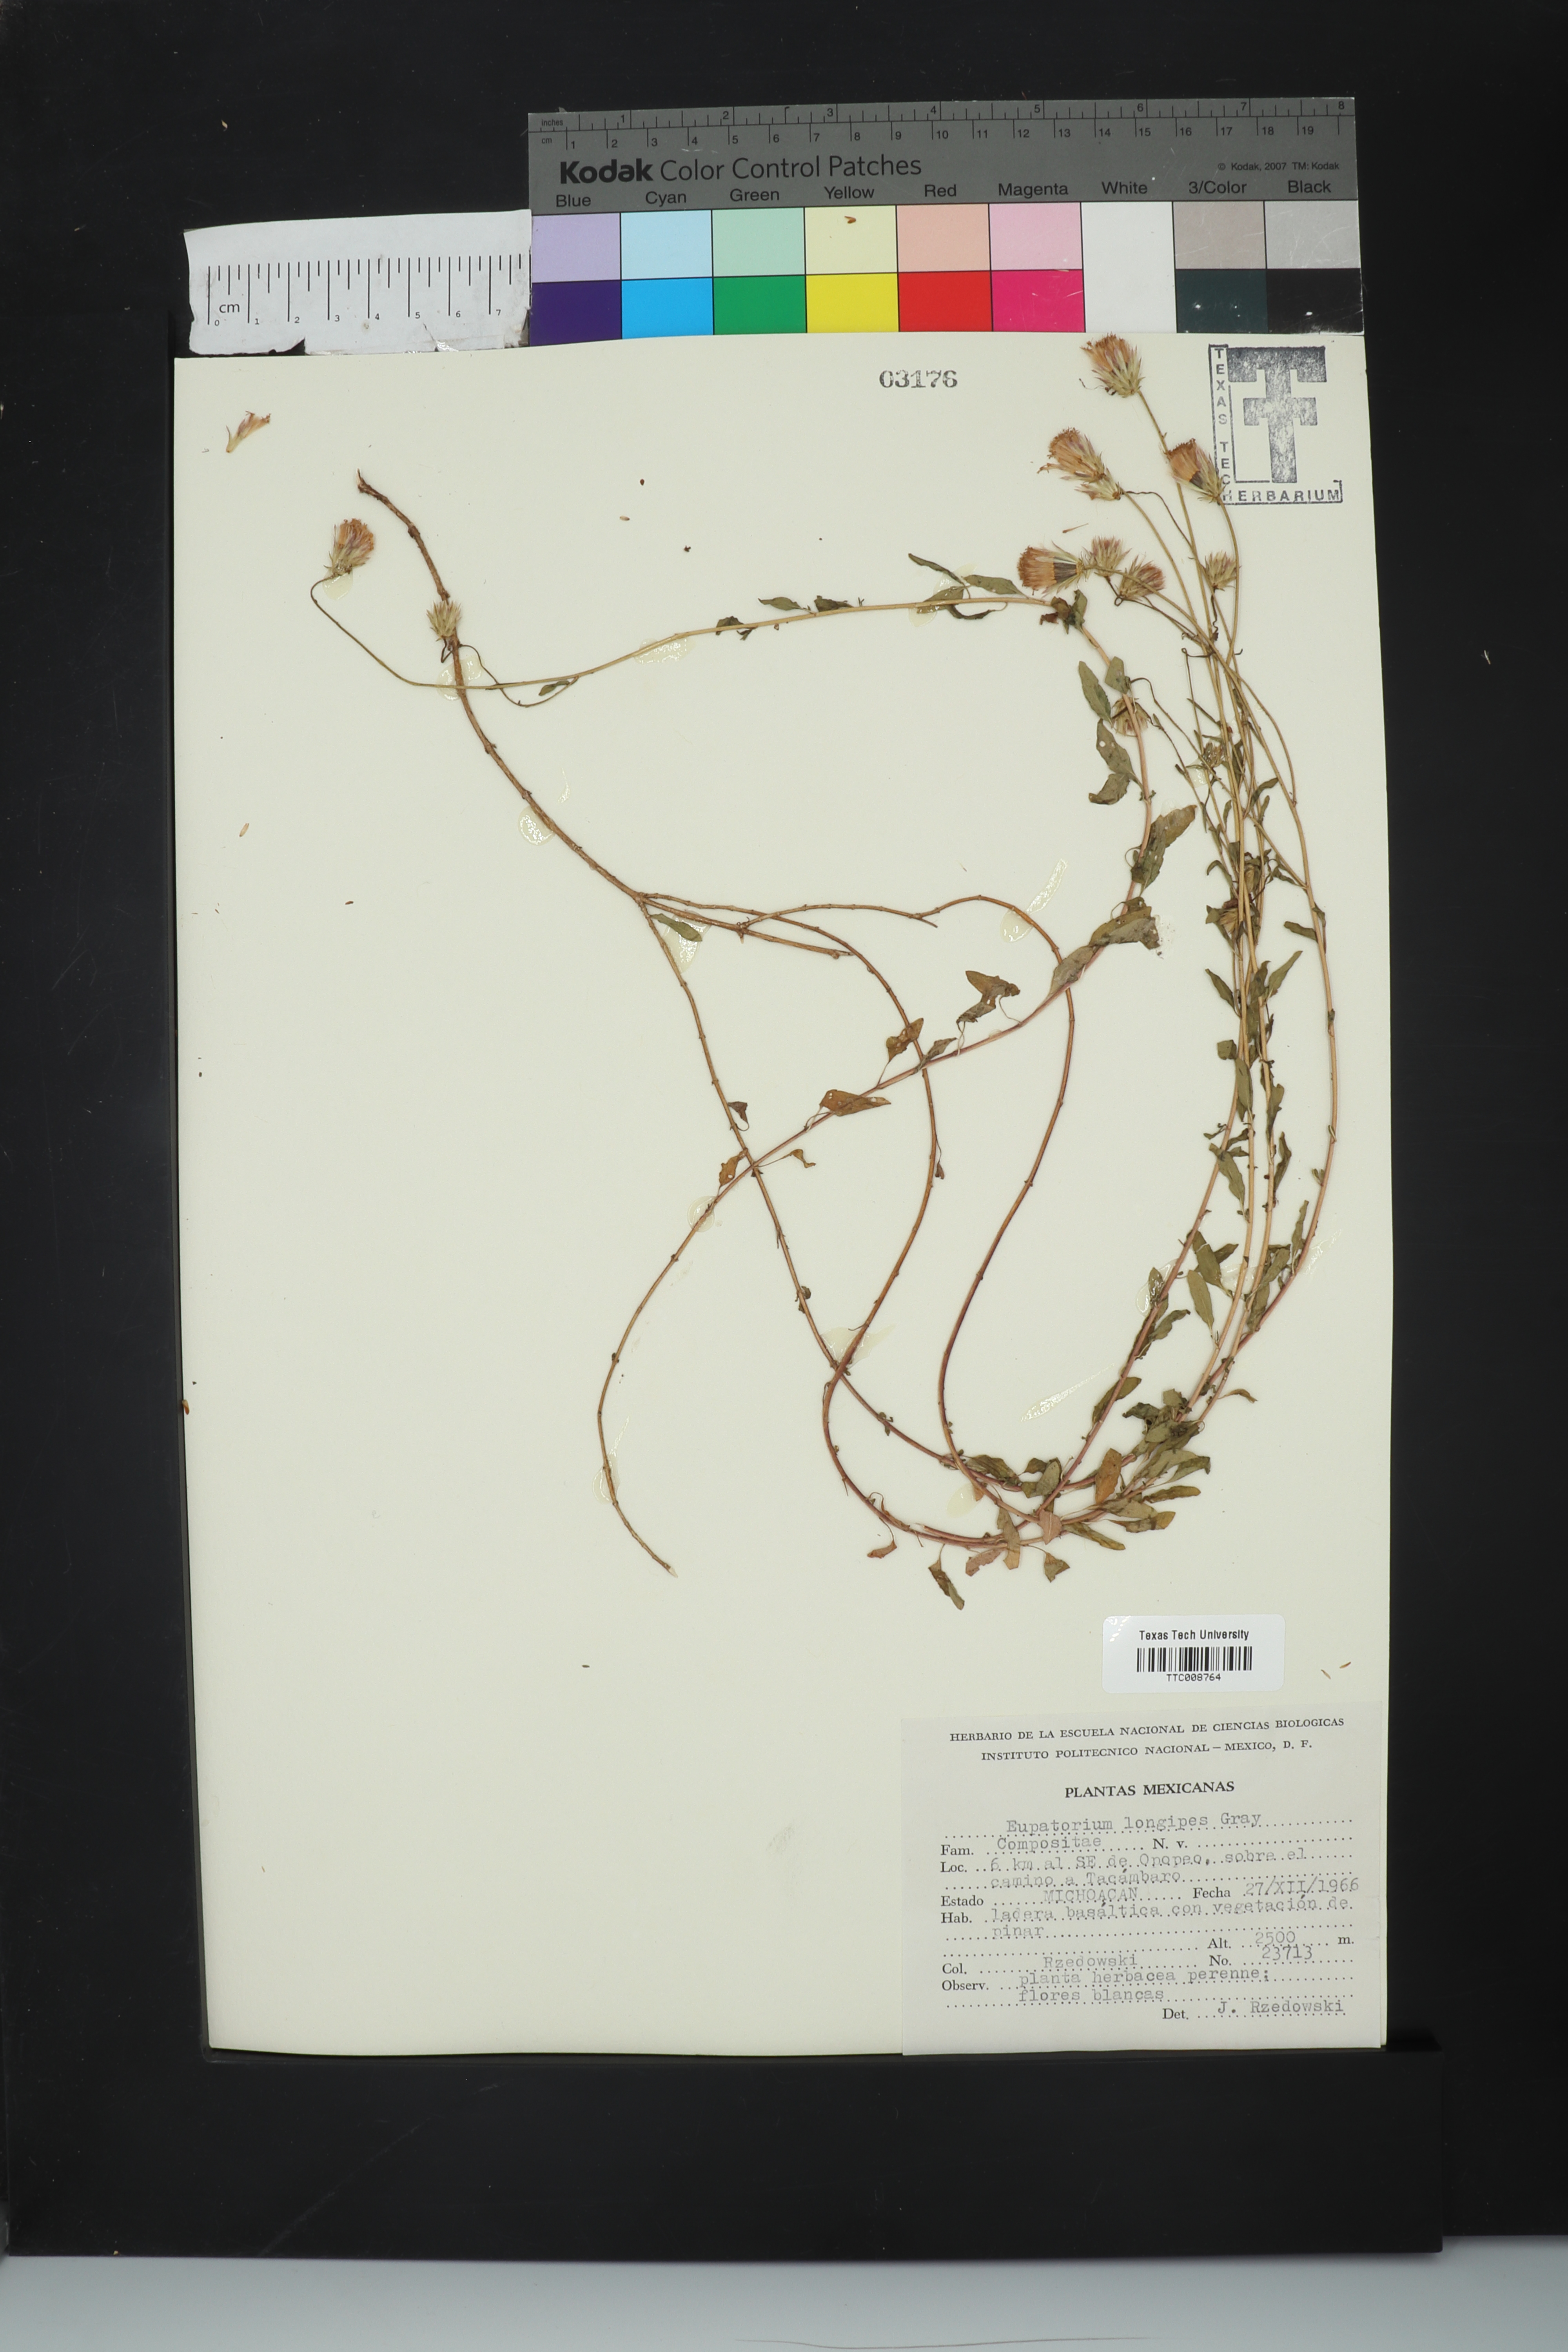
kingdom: Plantae
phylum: Tracheophyta
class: Magnoliopsida
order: Asterales
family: Asteraceae
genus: Brickellia
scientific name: Brickellia pedunculosa
